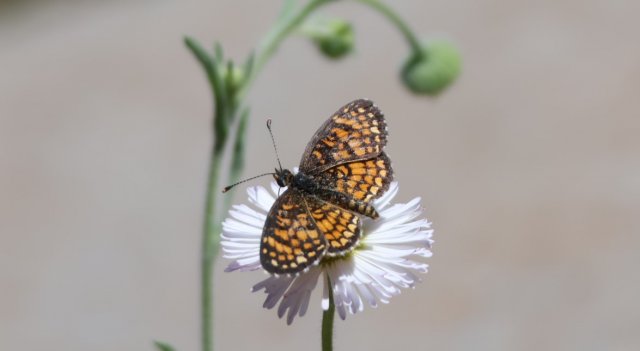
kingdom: Animalia
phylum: Arthropoda
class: Insecta
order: Lepidoptera
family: Nymphalidae
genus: Texola
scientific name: Texola elada
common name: Elada Checkerspot
